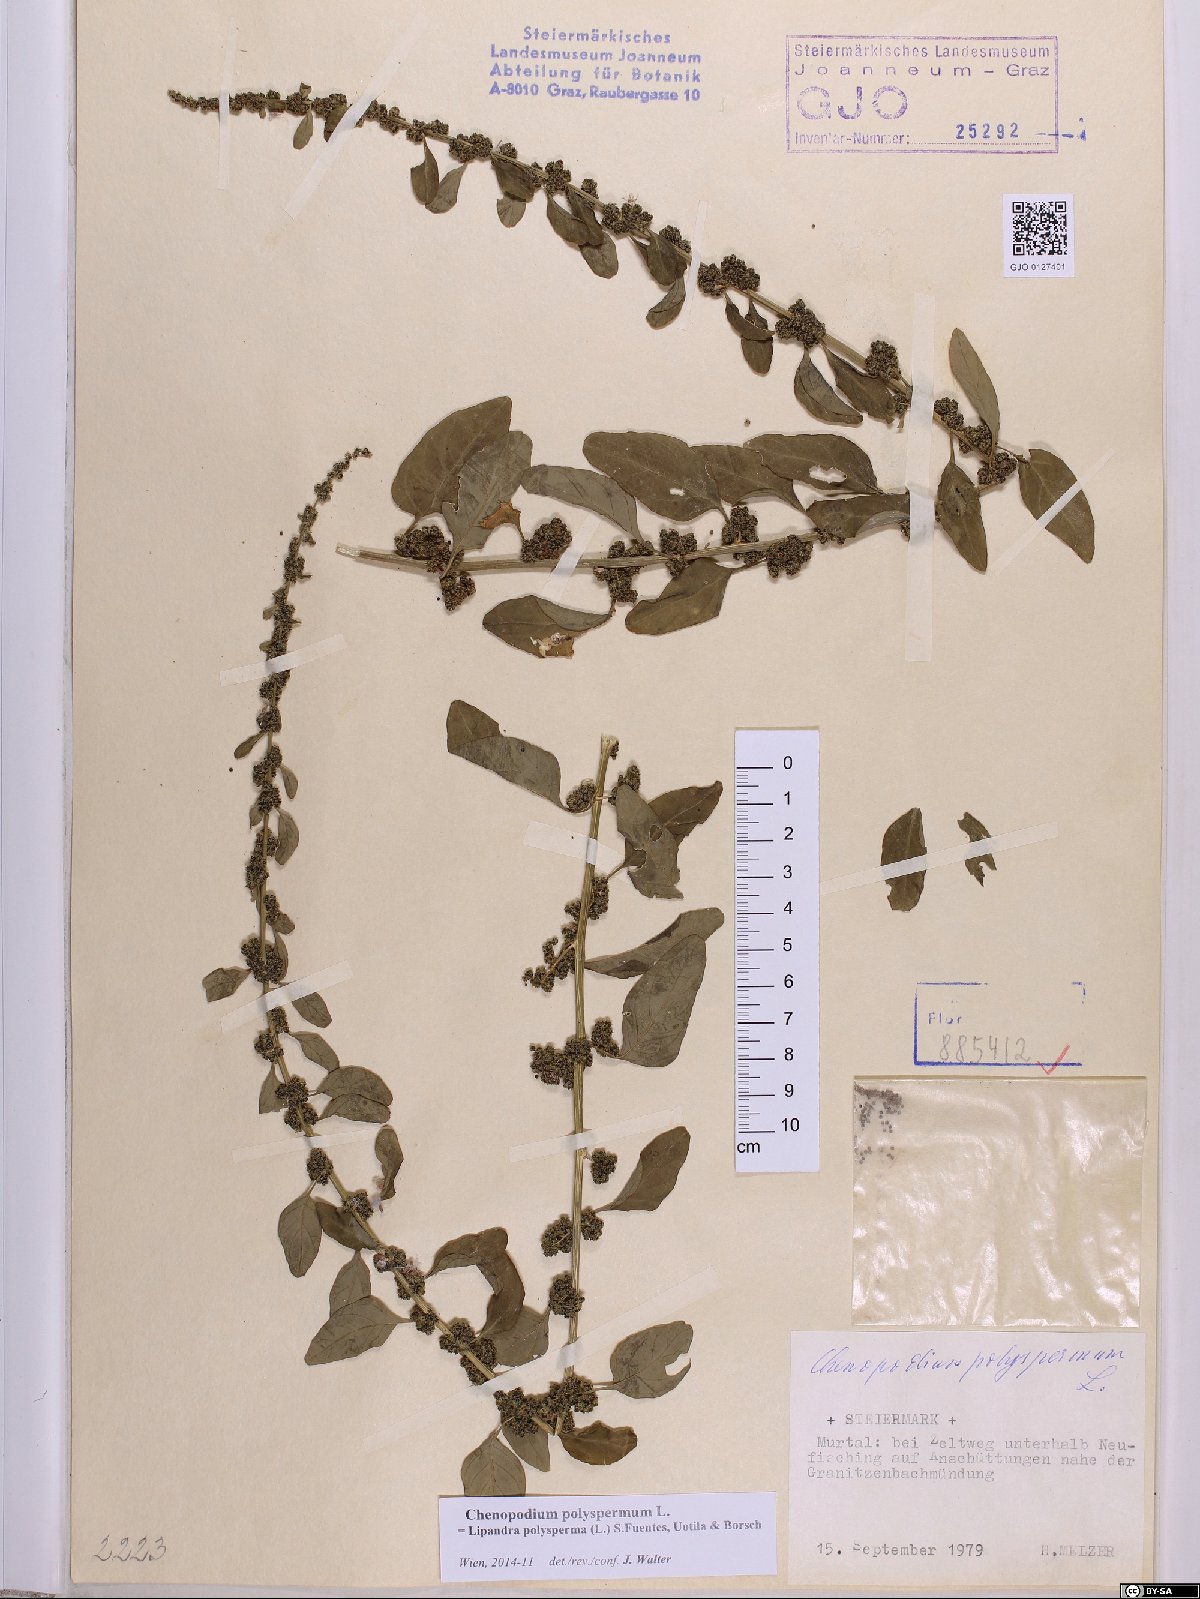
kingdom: Plantae
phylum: Tracheophyta
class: Magnoliopsida
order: Caryophyllales
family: Amaranthaceae
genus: Lipandra
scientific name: Lipandra polysperma
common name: Many-seed goosefoot
